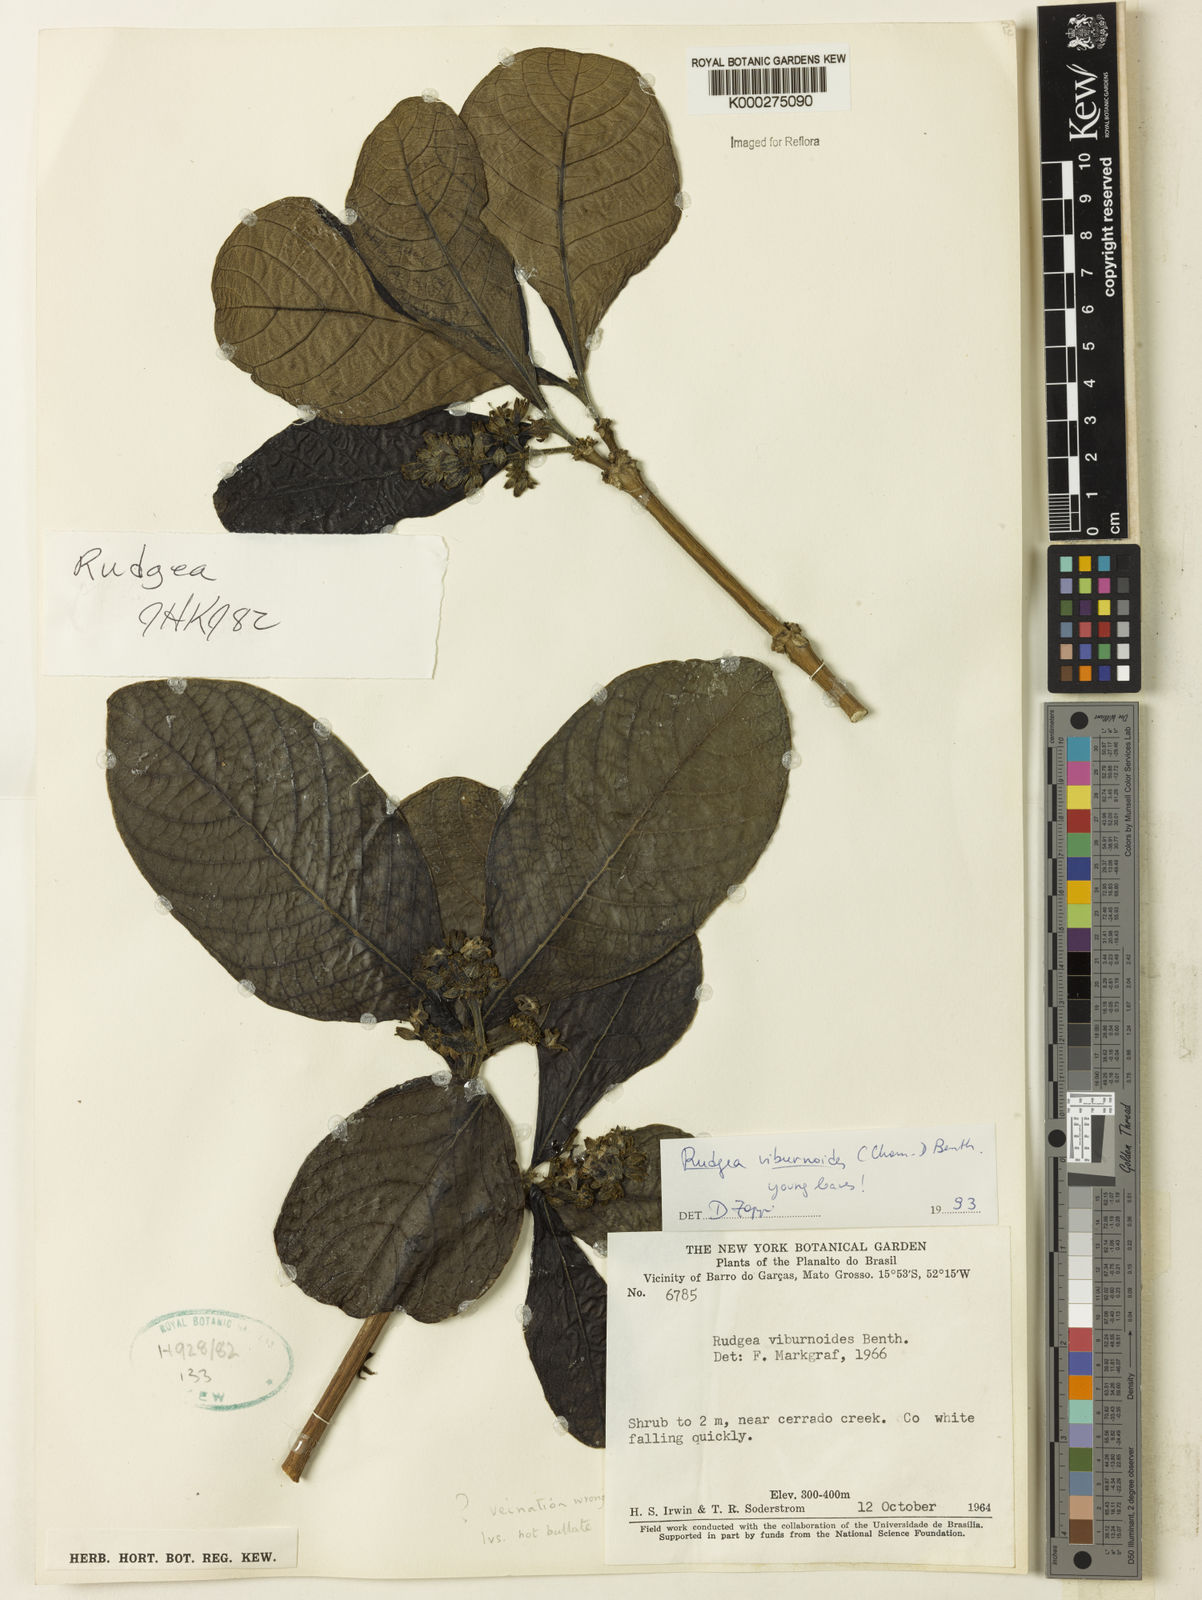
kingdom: Plantae
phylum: Tracheophyta
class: Magnoliopsida
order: Gentianales
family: Rubiaceae
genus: Rudgea
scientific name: Rudgea viburnoides
